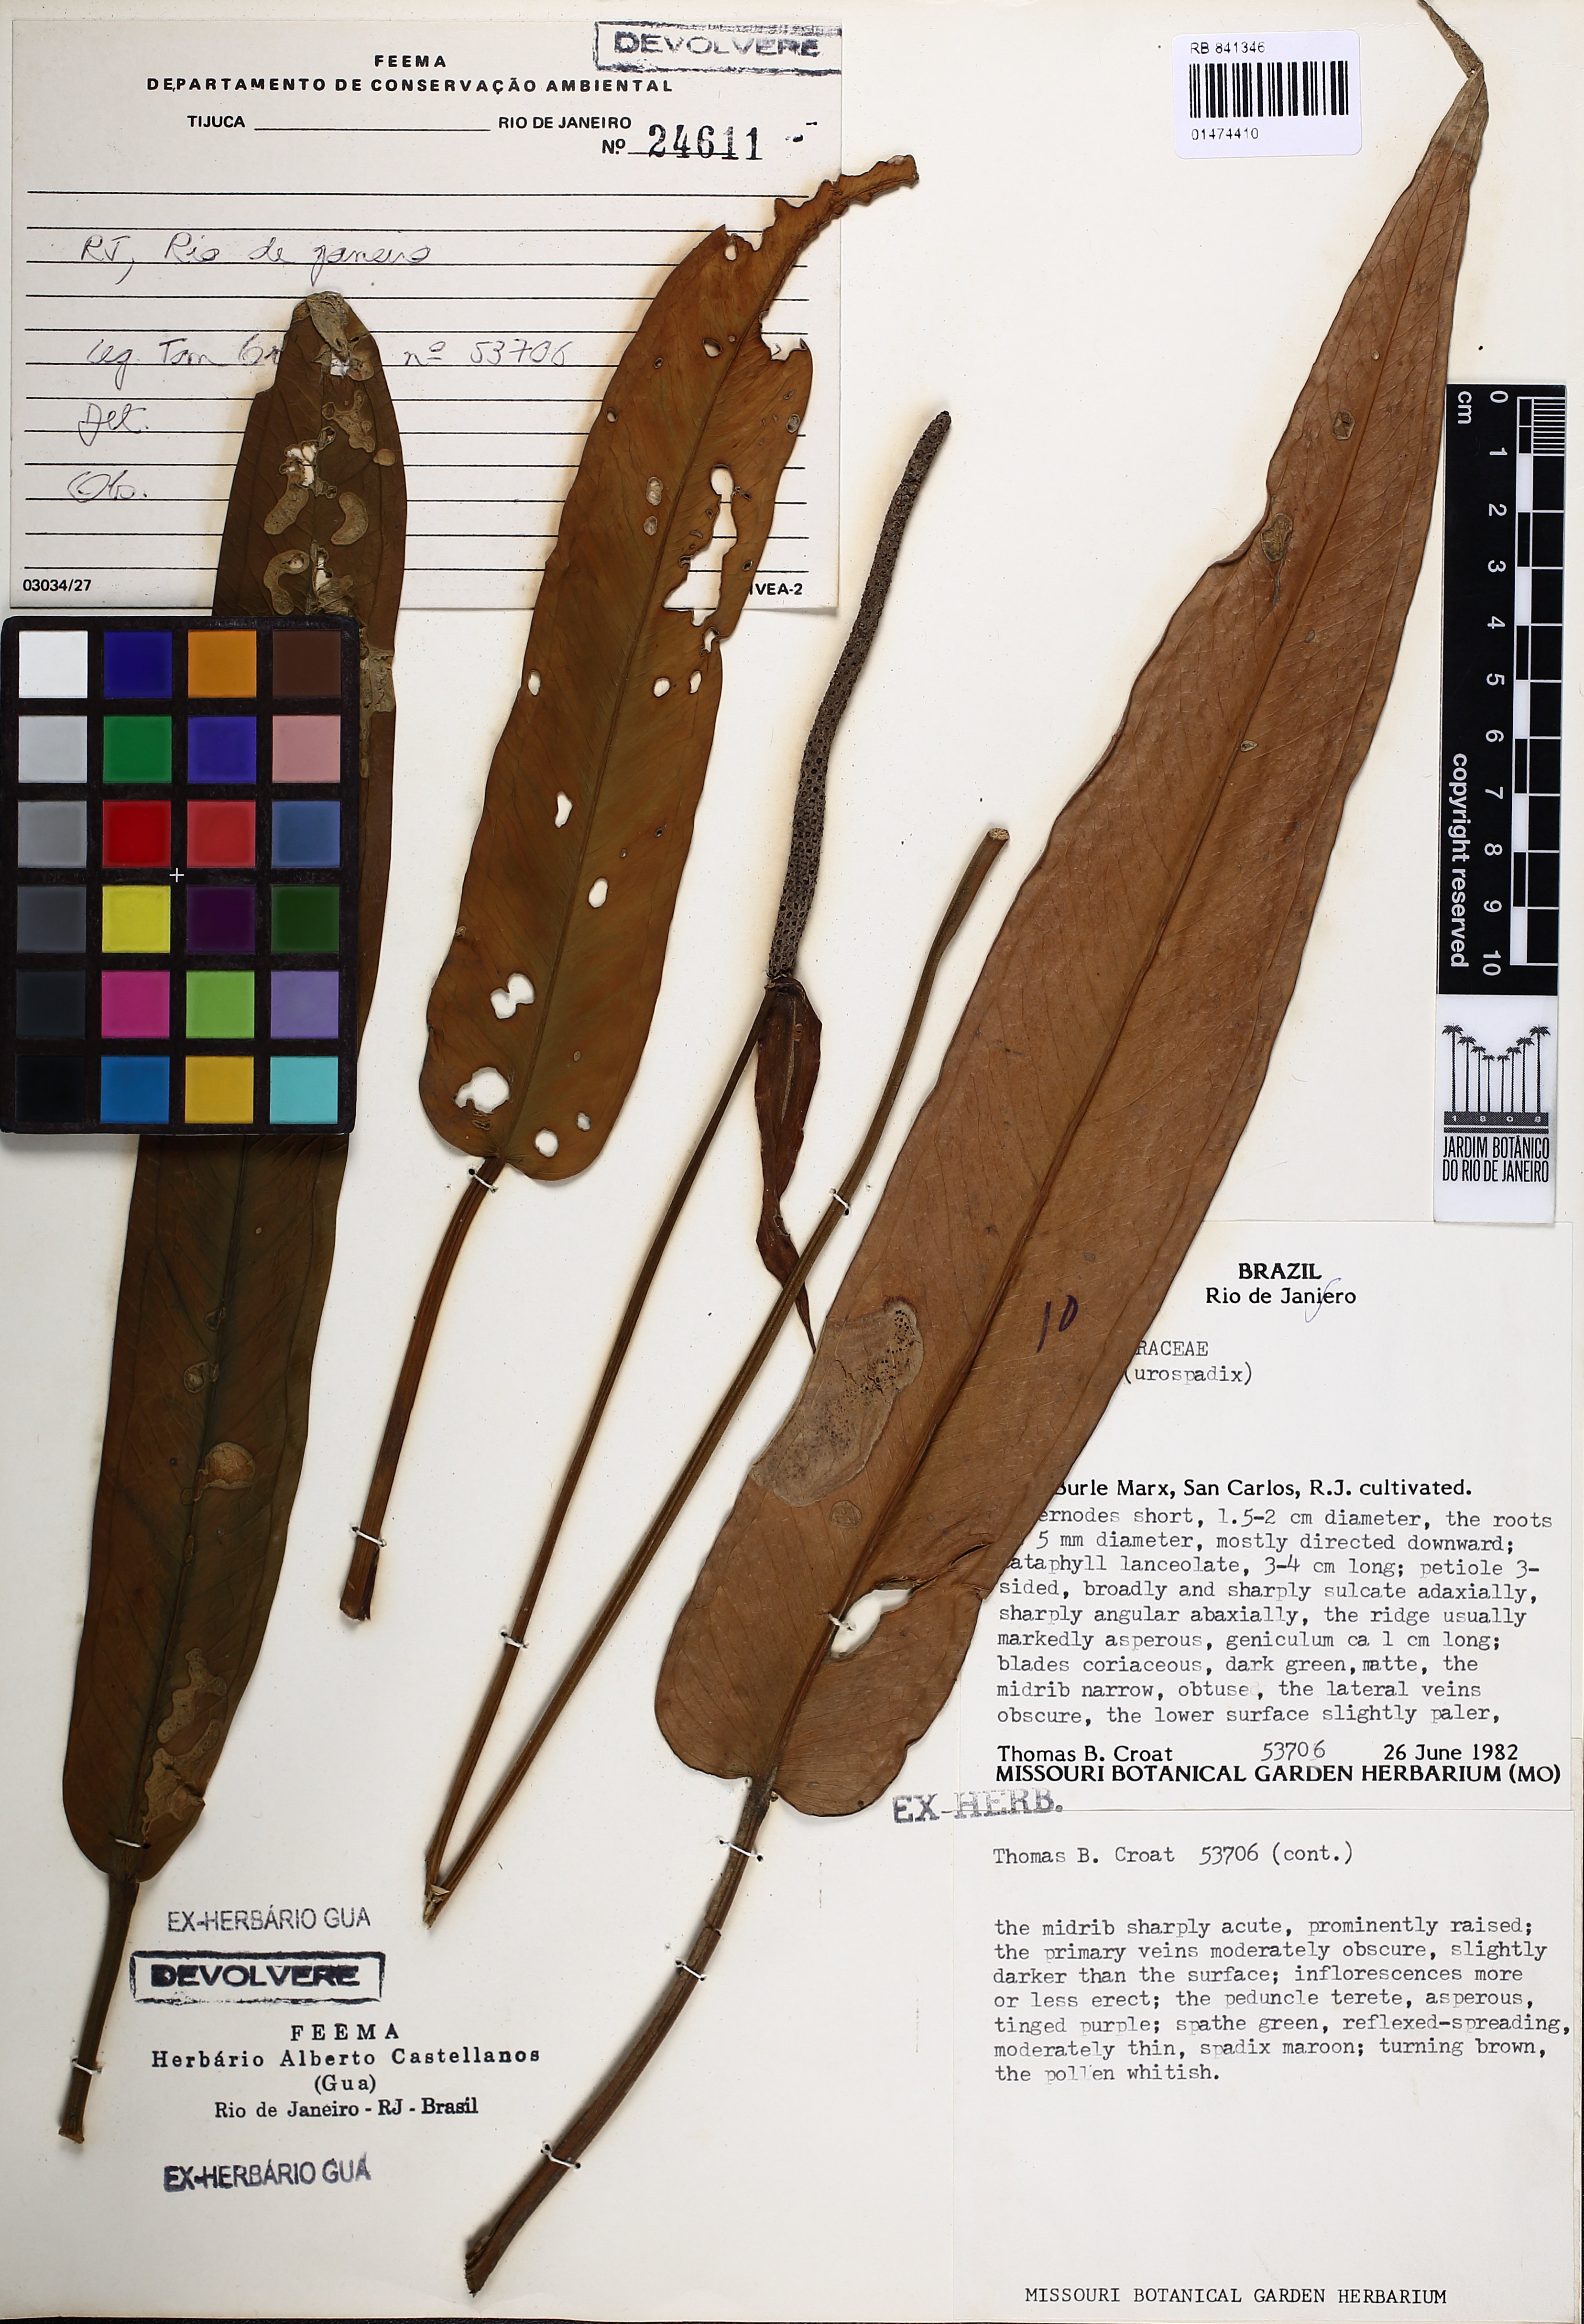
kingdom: Plantae
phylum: Tracheophyta
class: Liliopsida
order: Alismatales
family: Araceae
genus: Anthurium
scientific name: Anthurium
